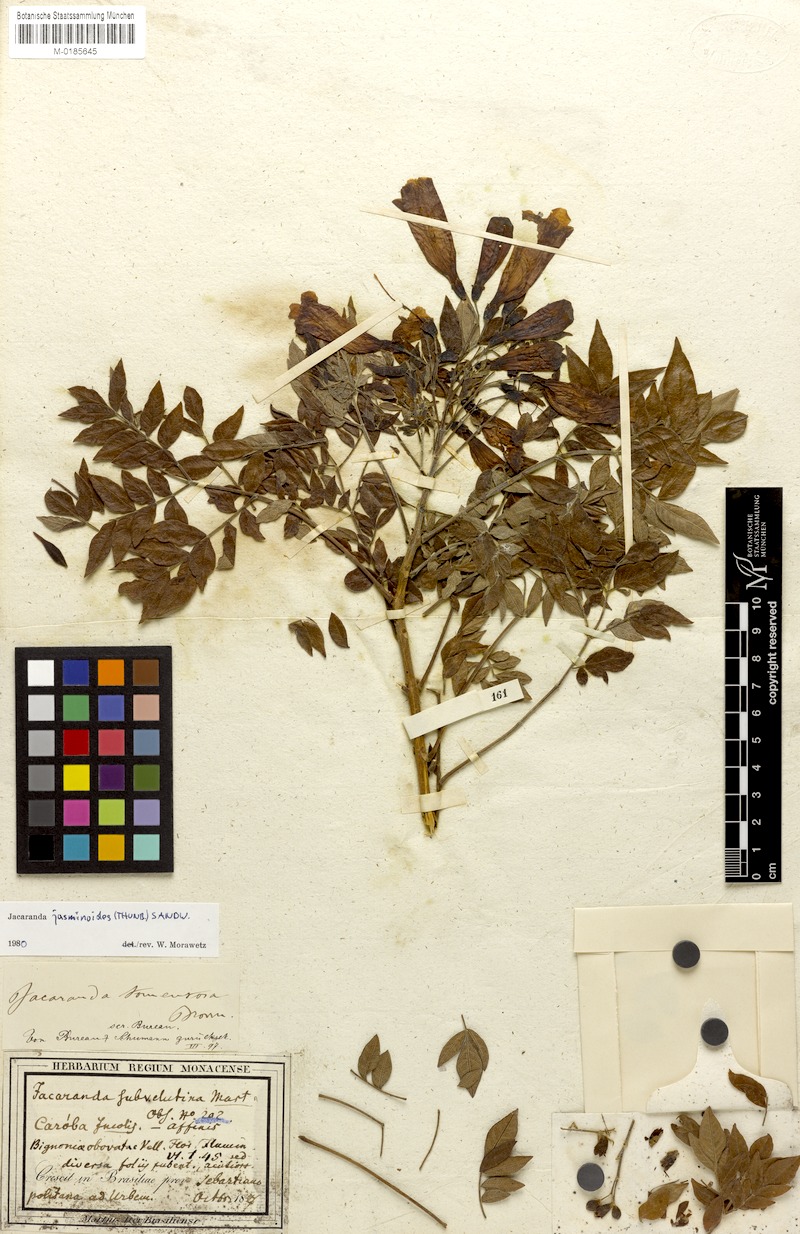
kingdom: Plantae
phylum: Tracheophyta
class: Magnoliopsida
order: Lamiales
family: Bignoniaceae
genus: Jacaranda
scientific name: Jacaranda jasminoides
